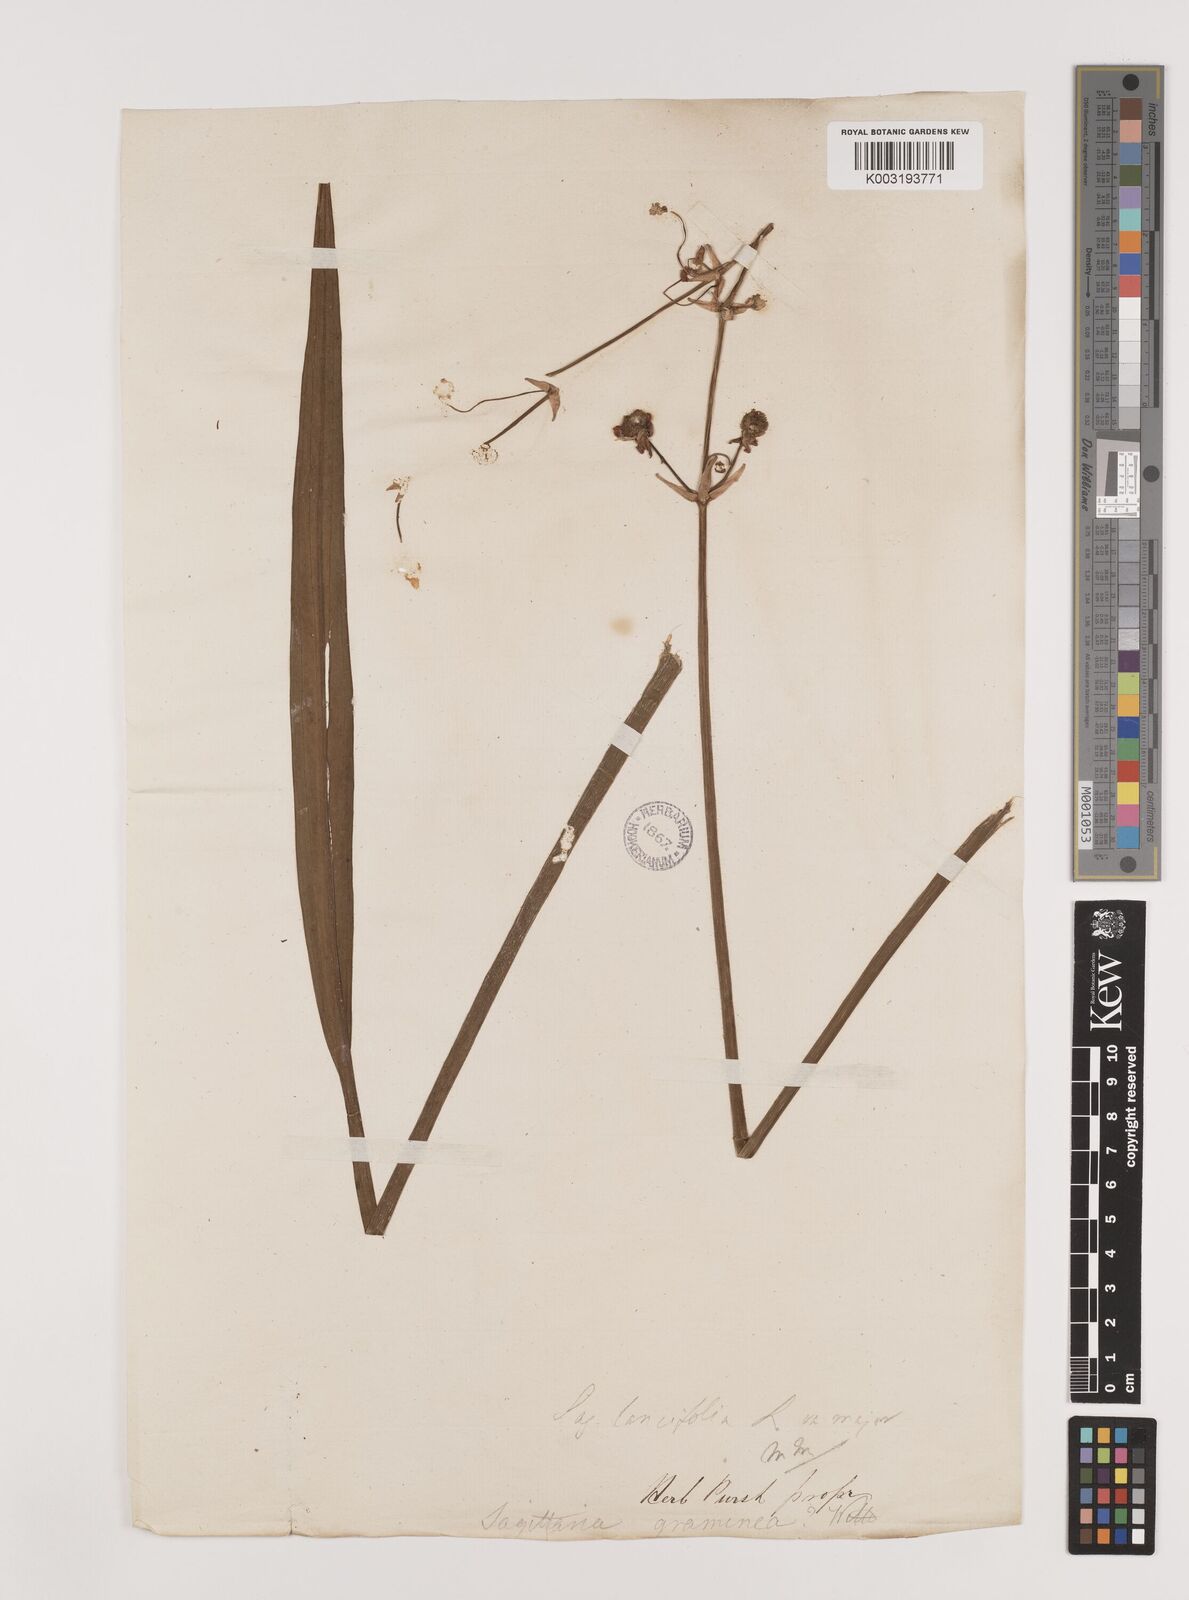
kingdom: Plantae
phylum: Tracheophyta
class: Liliopsida
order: Alismatales
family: Alismataceae
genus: Sagittaria
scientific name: Sagittaria lancifolia
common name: Lance-leaf arrowhead
